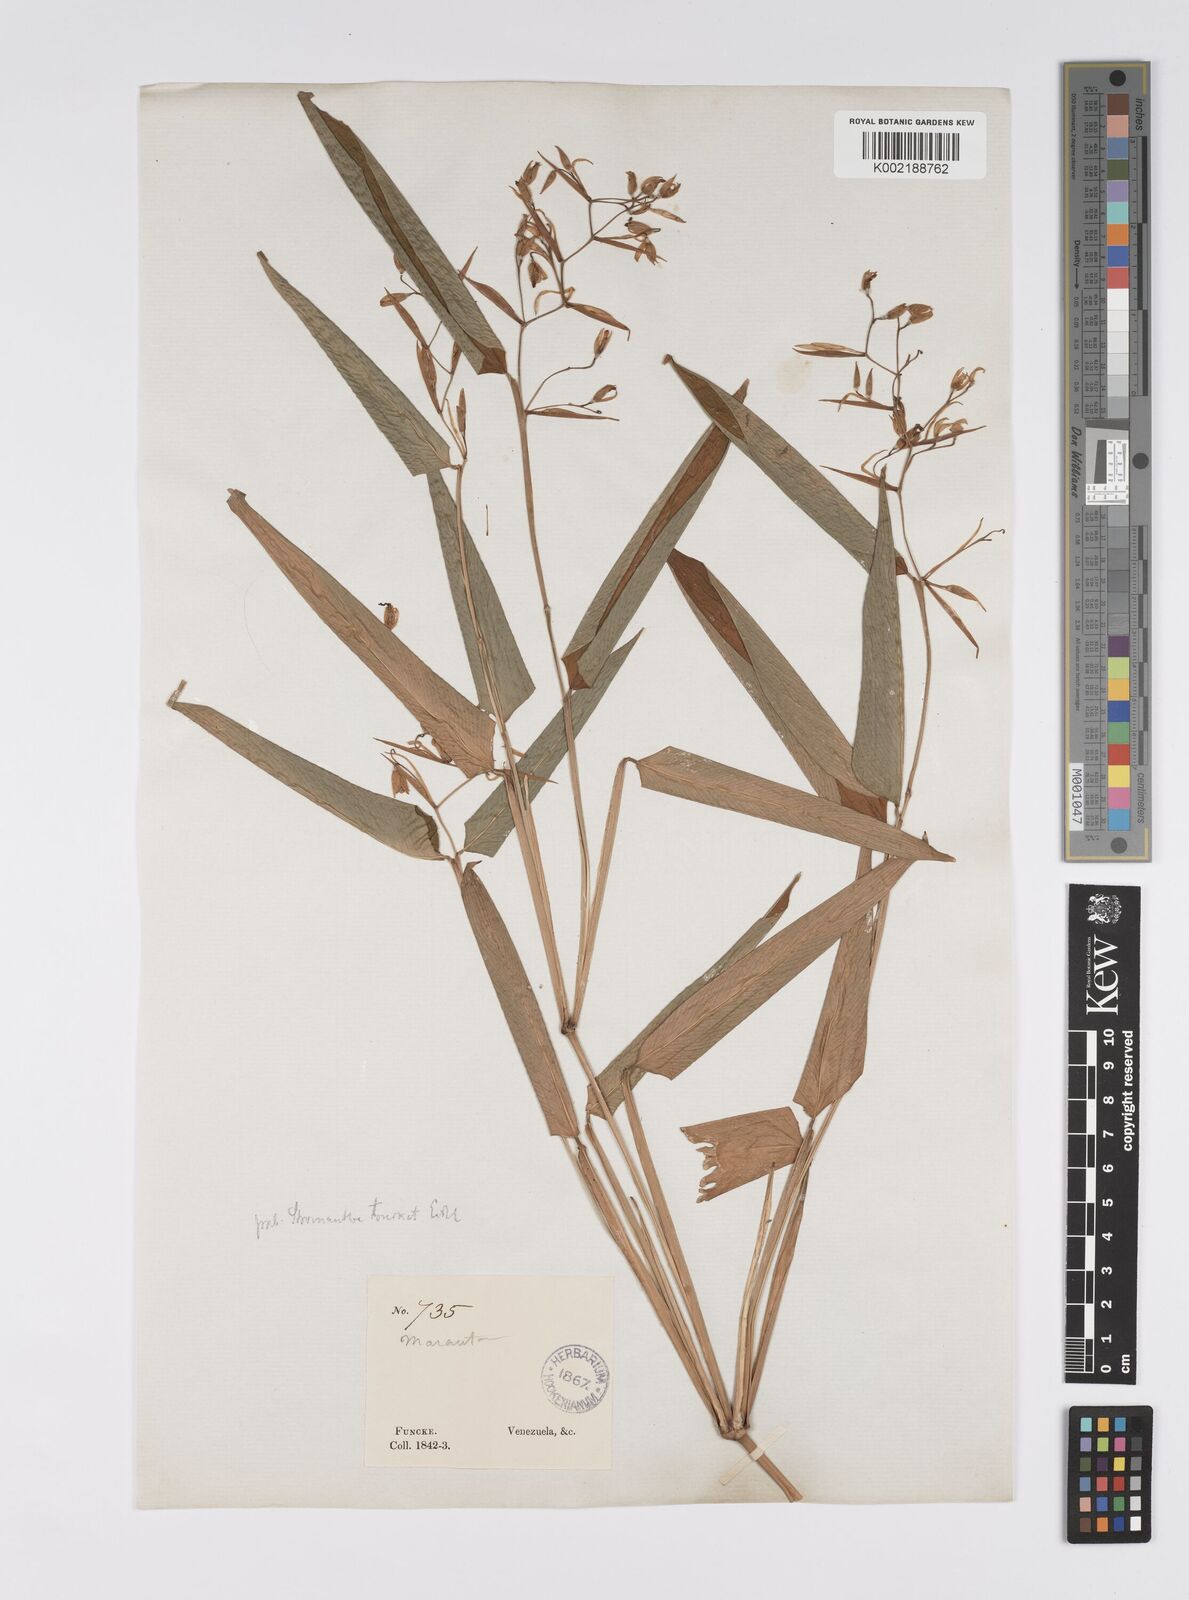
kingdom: Plantae
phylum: Tracheophyta
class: Liliopsida
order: Zingiberales
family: Marantaceae
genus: Stromanthe
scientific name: Stromanthe tonckat
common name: Stromanthe
